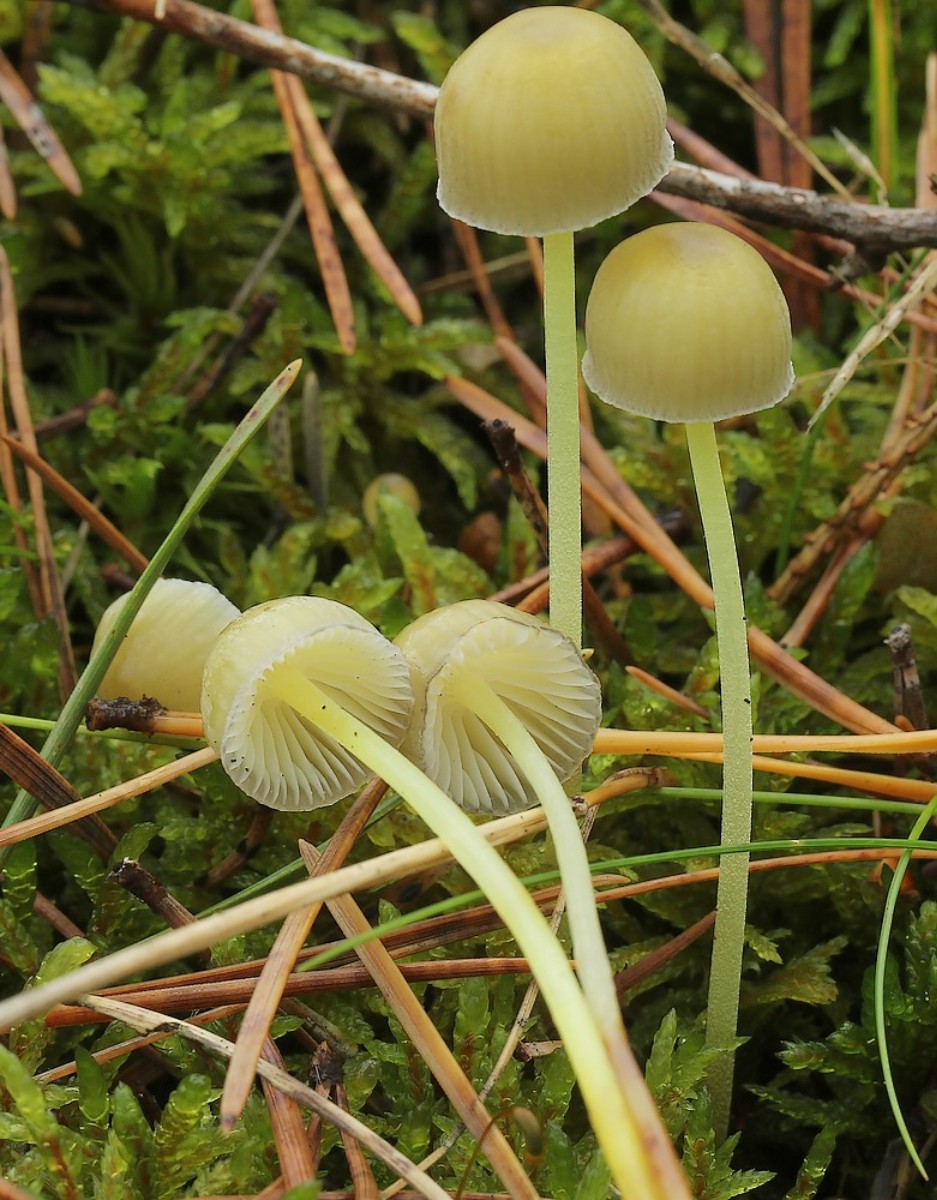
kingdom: Fungi
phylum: Basidiomycota
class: Agaricomycetes
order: Agaricales
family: Mycenaceae
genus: Mycena
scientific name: Mycena epipterygia
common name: gulstokket huesvamp
